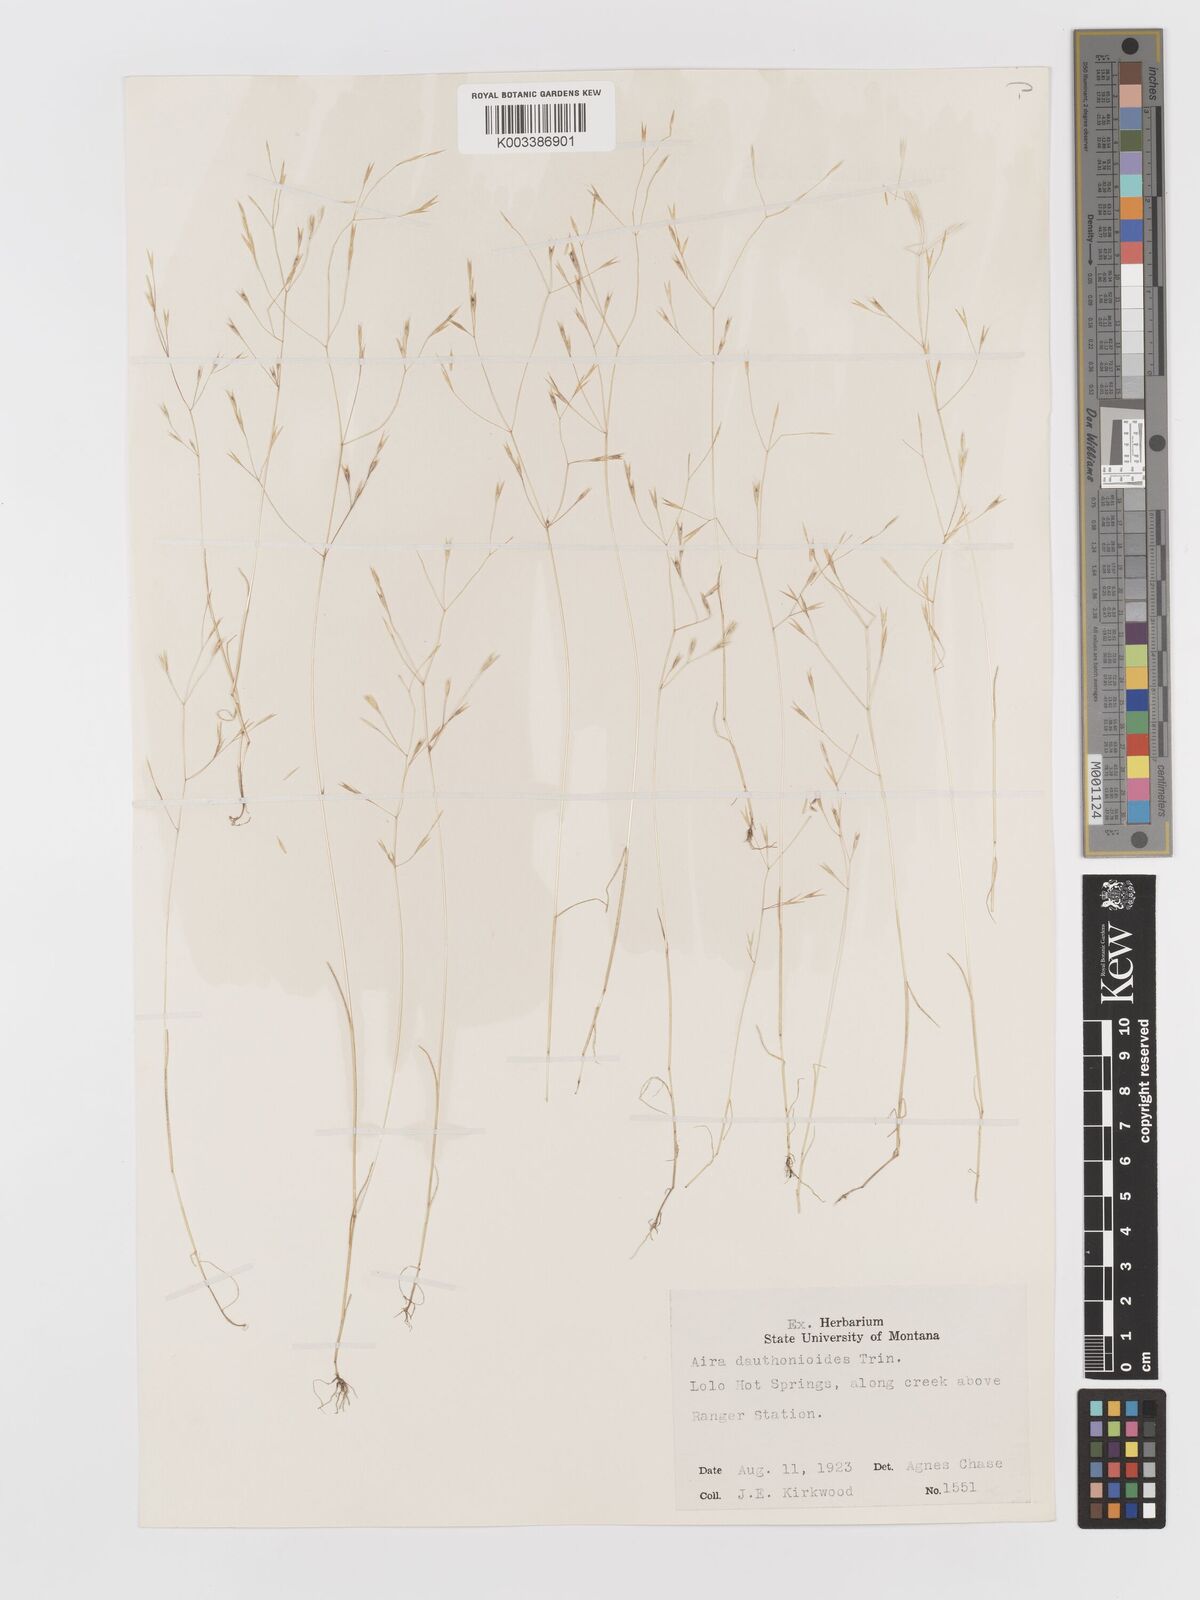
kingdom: Plantae
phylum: Tracheophyta
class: Liliopsida
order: Poales
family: Poaceae
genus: Deschampsia
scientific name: Deschampsia danthonioides
